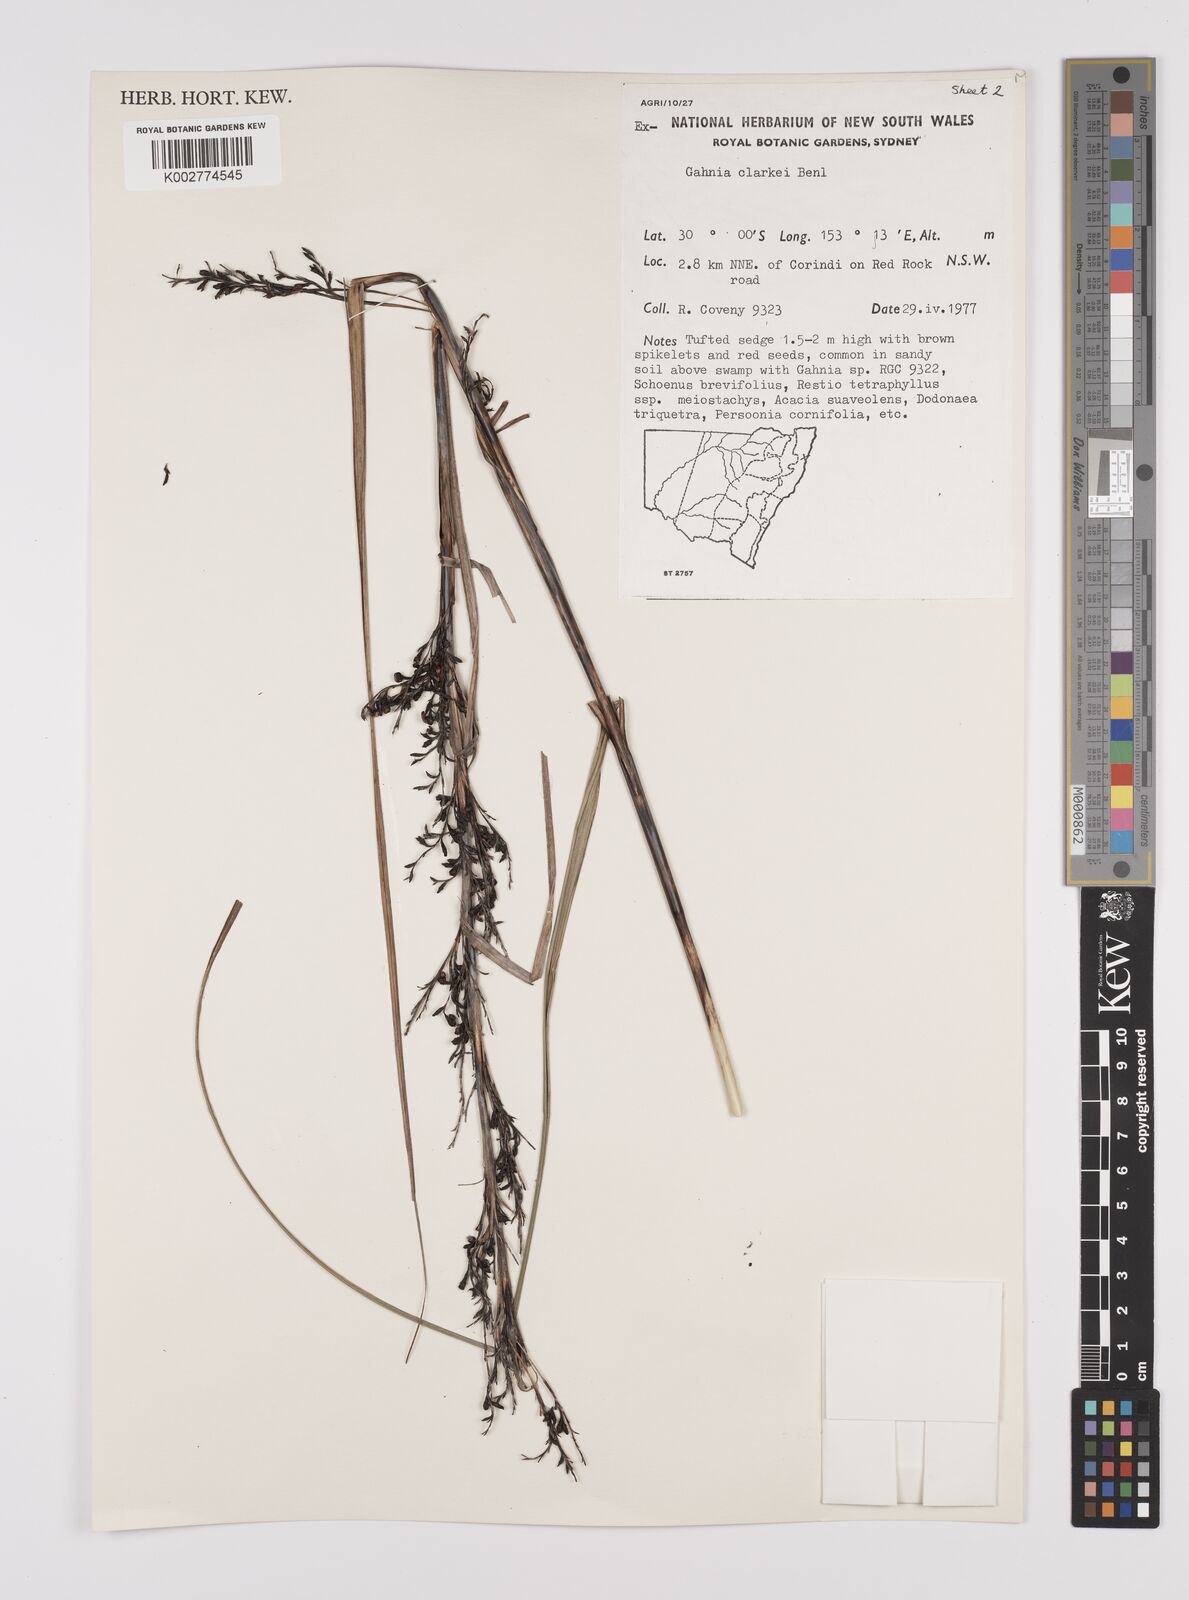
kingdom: Plantae
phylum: Tracheophyta
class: Liliopsida
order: Poales
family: Cyperaceae
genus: Gahnia
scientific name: Gahnia clarkei
